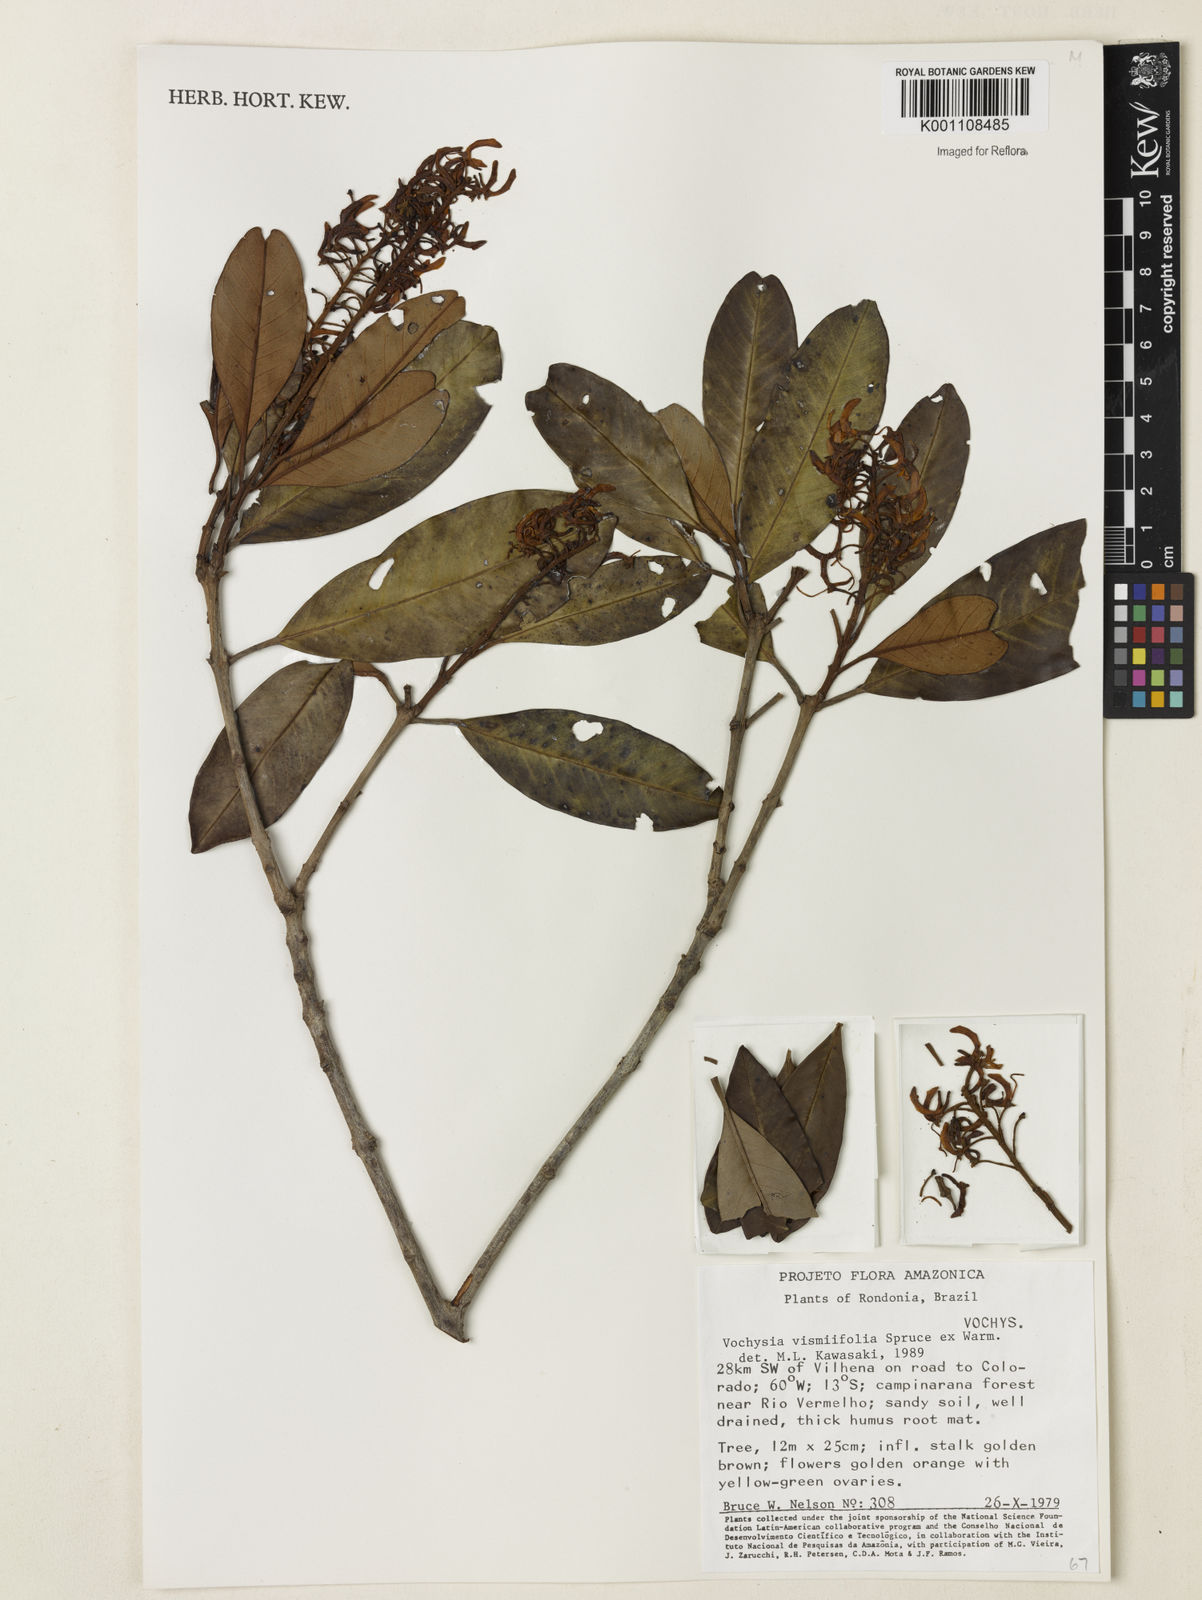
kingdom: Plantae
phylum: Tracheophyta
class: Magnoliopsida
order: Myrtales
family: Vochysiaceae
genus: Vochysia
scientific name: Vochysia vismiifolia
